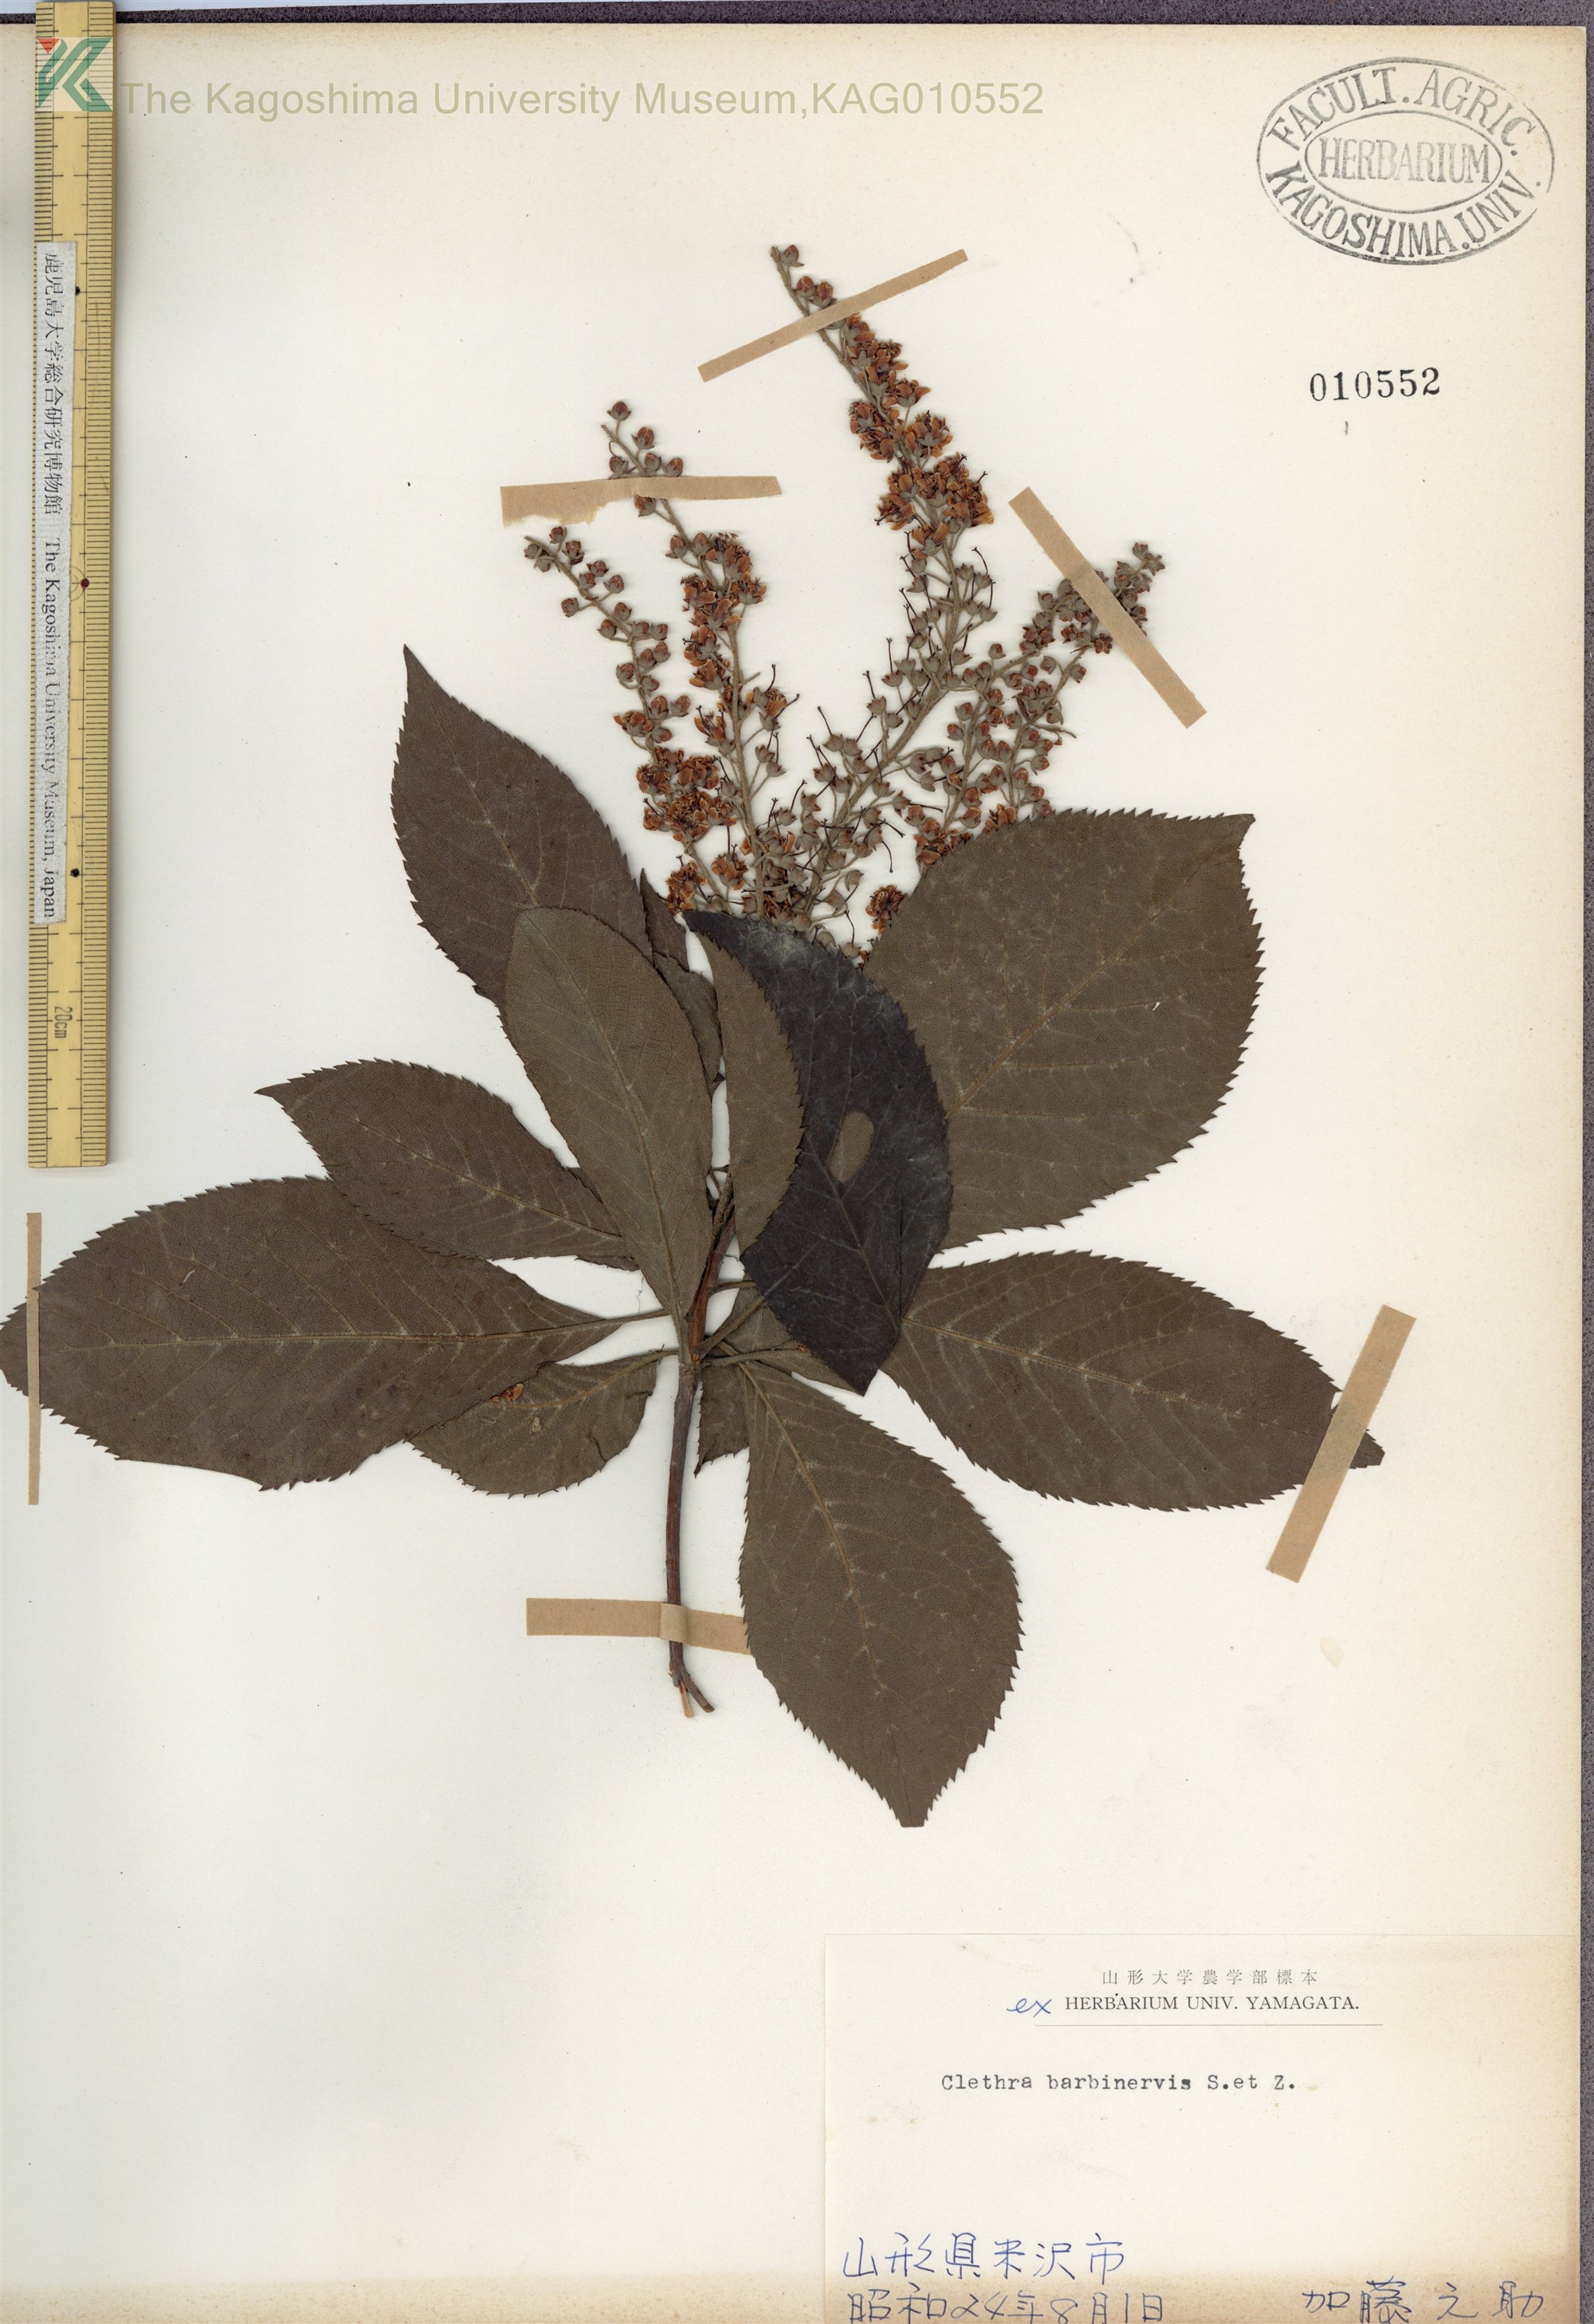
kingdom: Plantae
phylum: Tracheophyta
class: Magnoliopsida
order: Ericales
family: Clethraceae
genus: Clethra
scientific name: Clethra barbinervis
